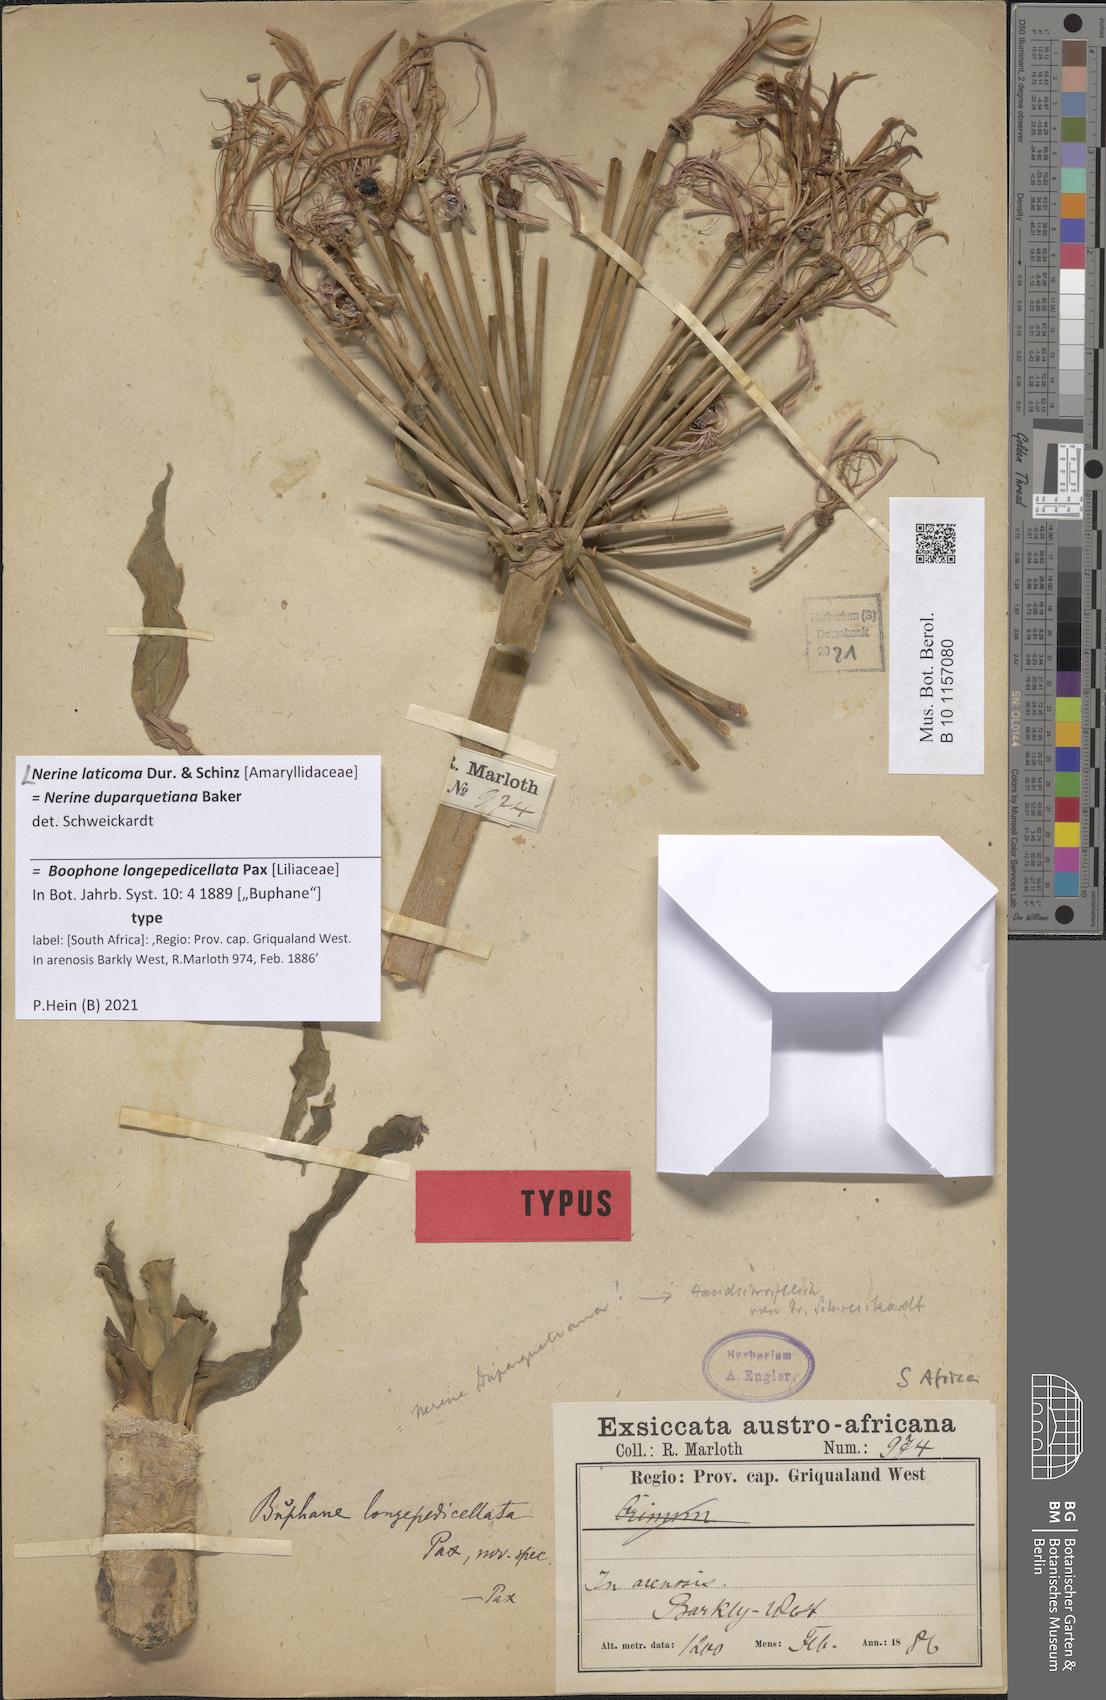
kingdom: Plantae
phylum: Tracheophyta
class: Liliopsida
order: Asparagales
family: Amaryllidaceae
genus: Nerine
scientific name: Nerine laticoma
